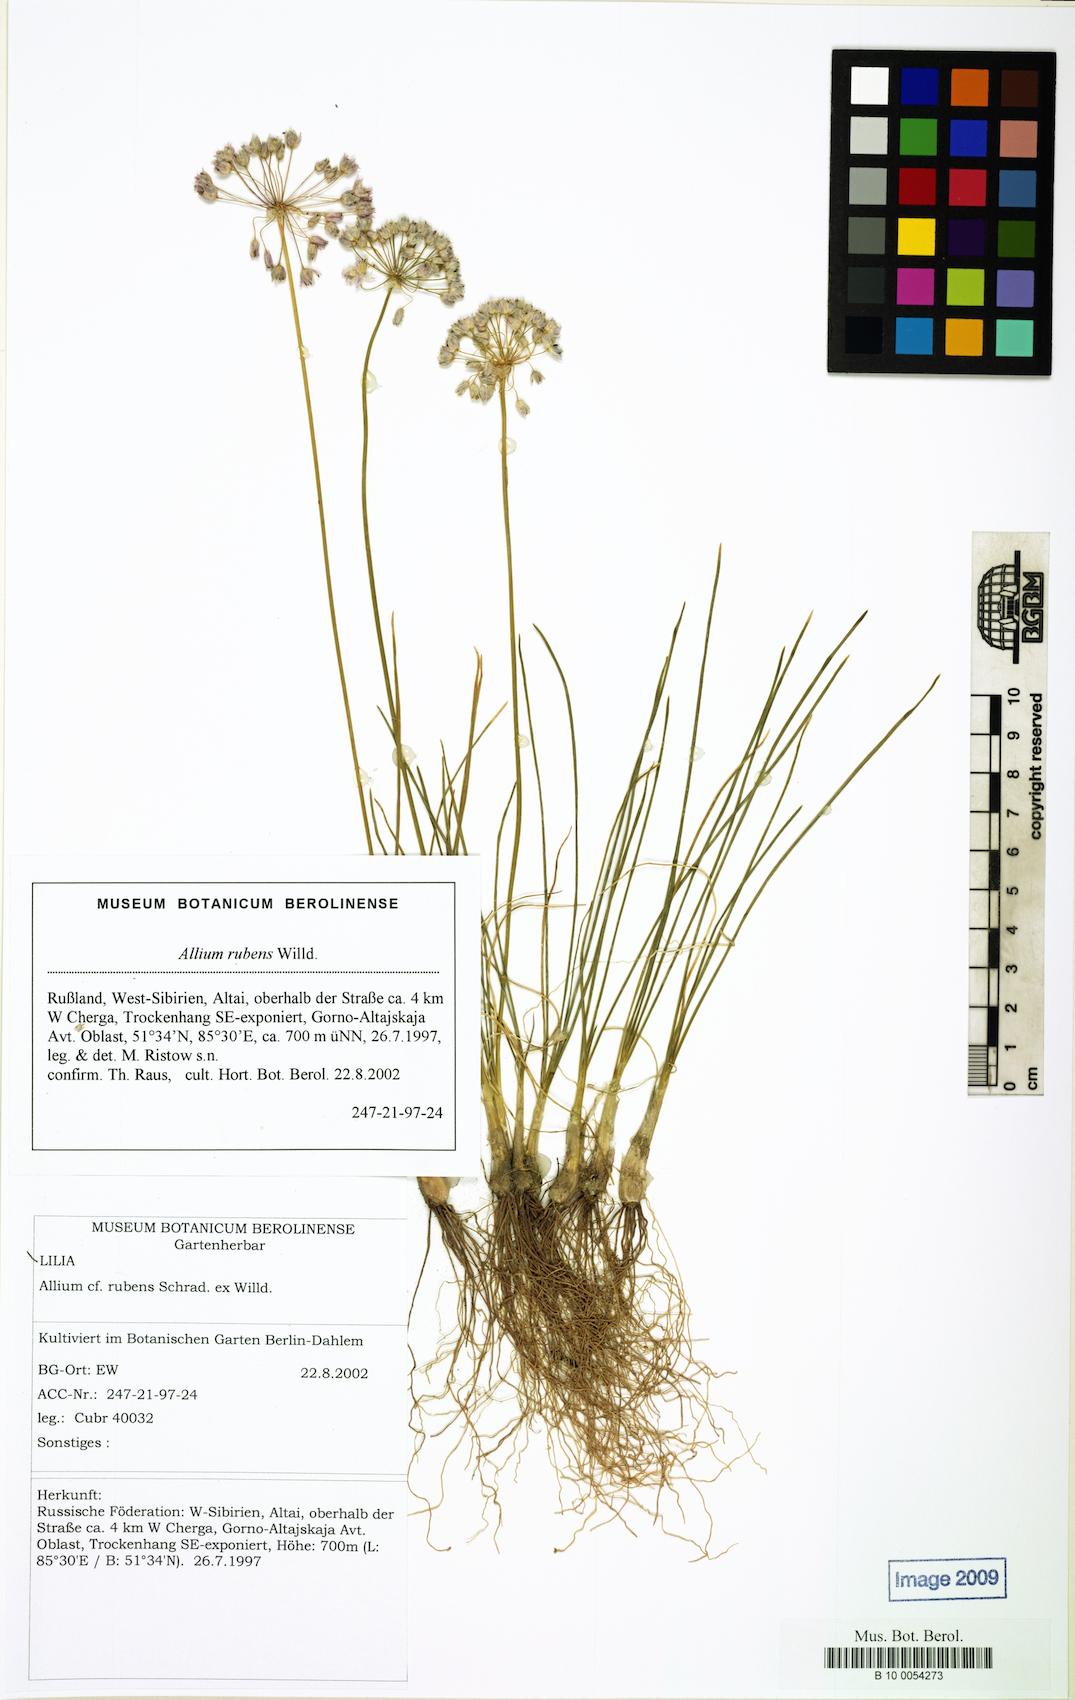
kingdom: Plantae
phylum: Tracheophyta
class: Liliopsida
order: Asparagales
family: Amaryllidaceae
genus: Allium
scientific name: Allium rubens
